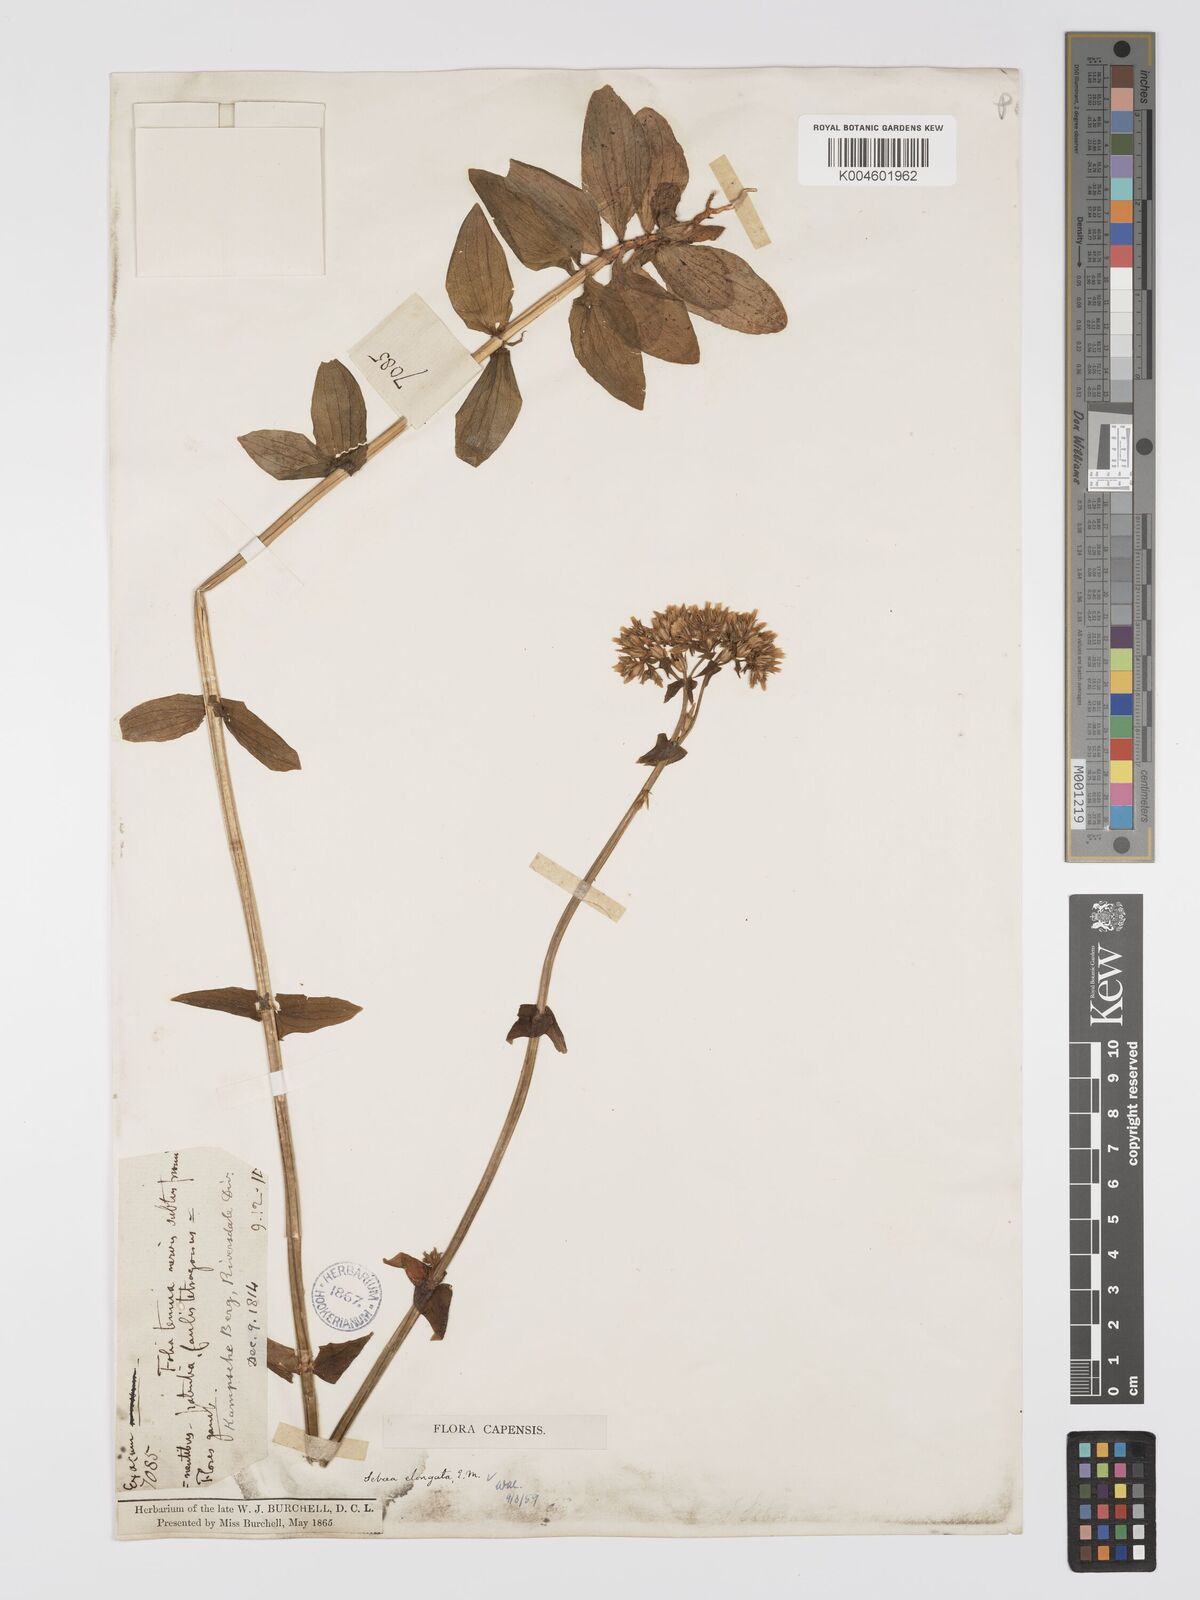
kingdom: Plantae
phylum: Tracheophyta
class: Magnoliopsida
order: Gentianales
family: Gentianaceae
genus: Sebaea
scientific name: Sebaea elongata
